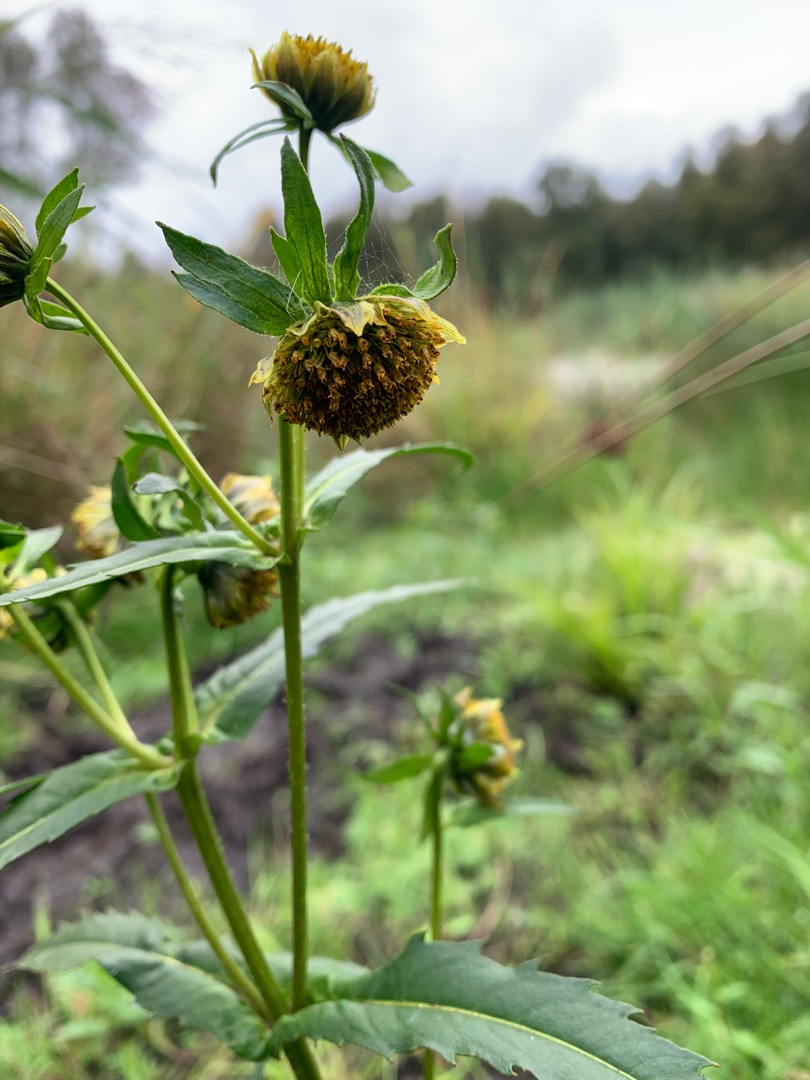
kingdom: Plantae
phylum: Tracheophyta
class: Magnoliopsida
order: Asterales
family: Asteraceae
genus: Bidens
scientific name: Bidens cernua
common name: Nikkende brøndsel
